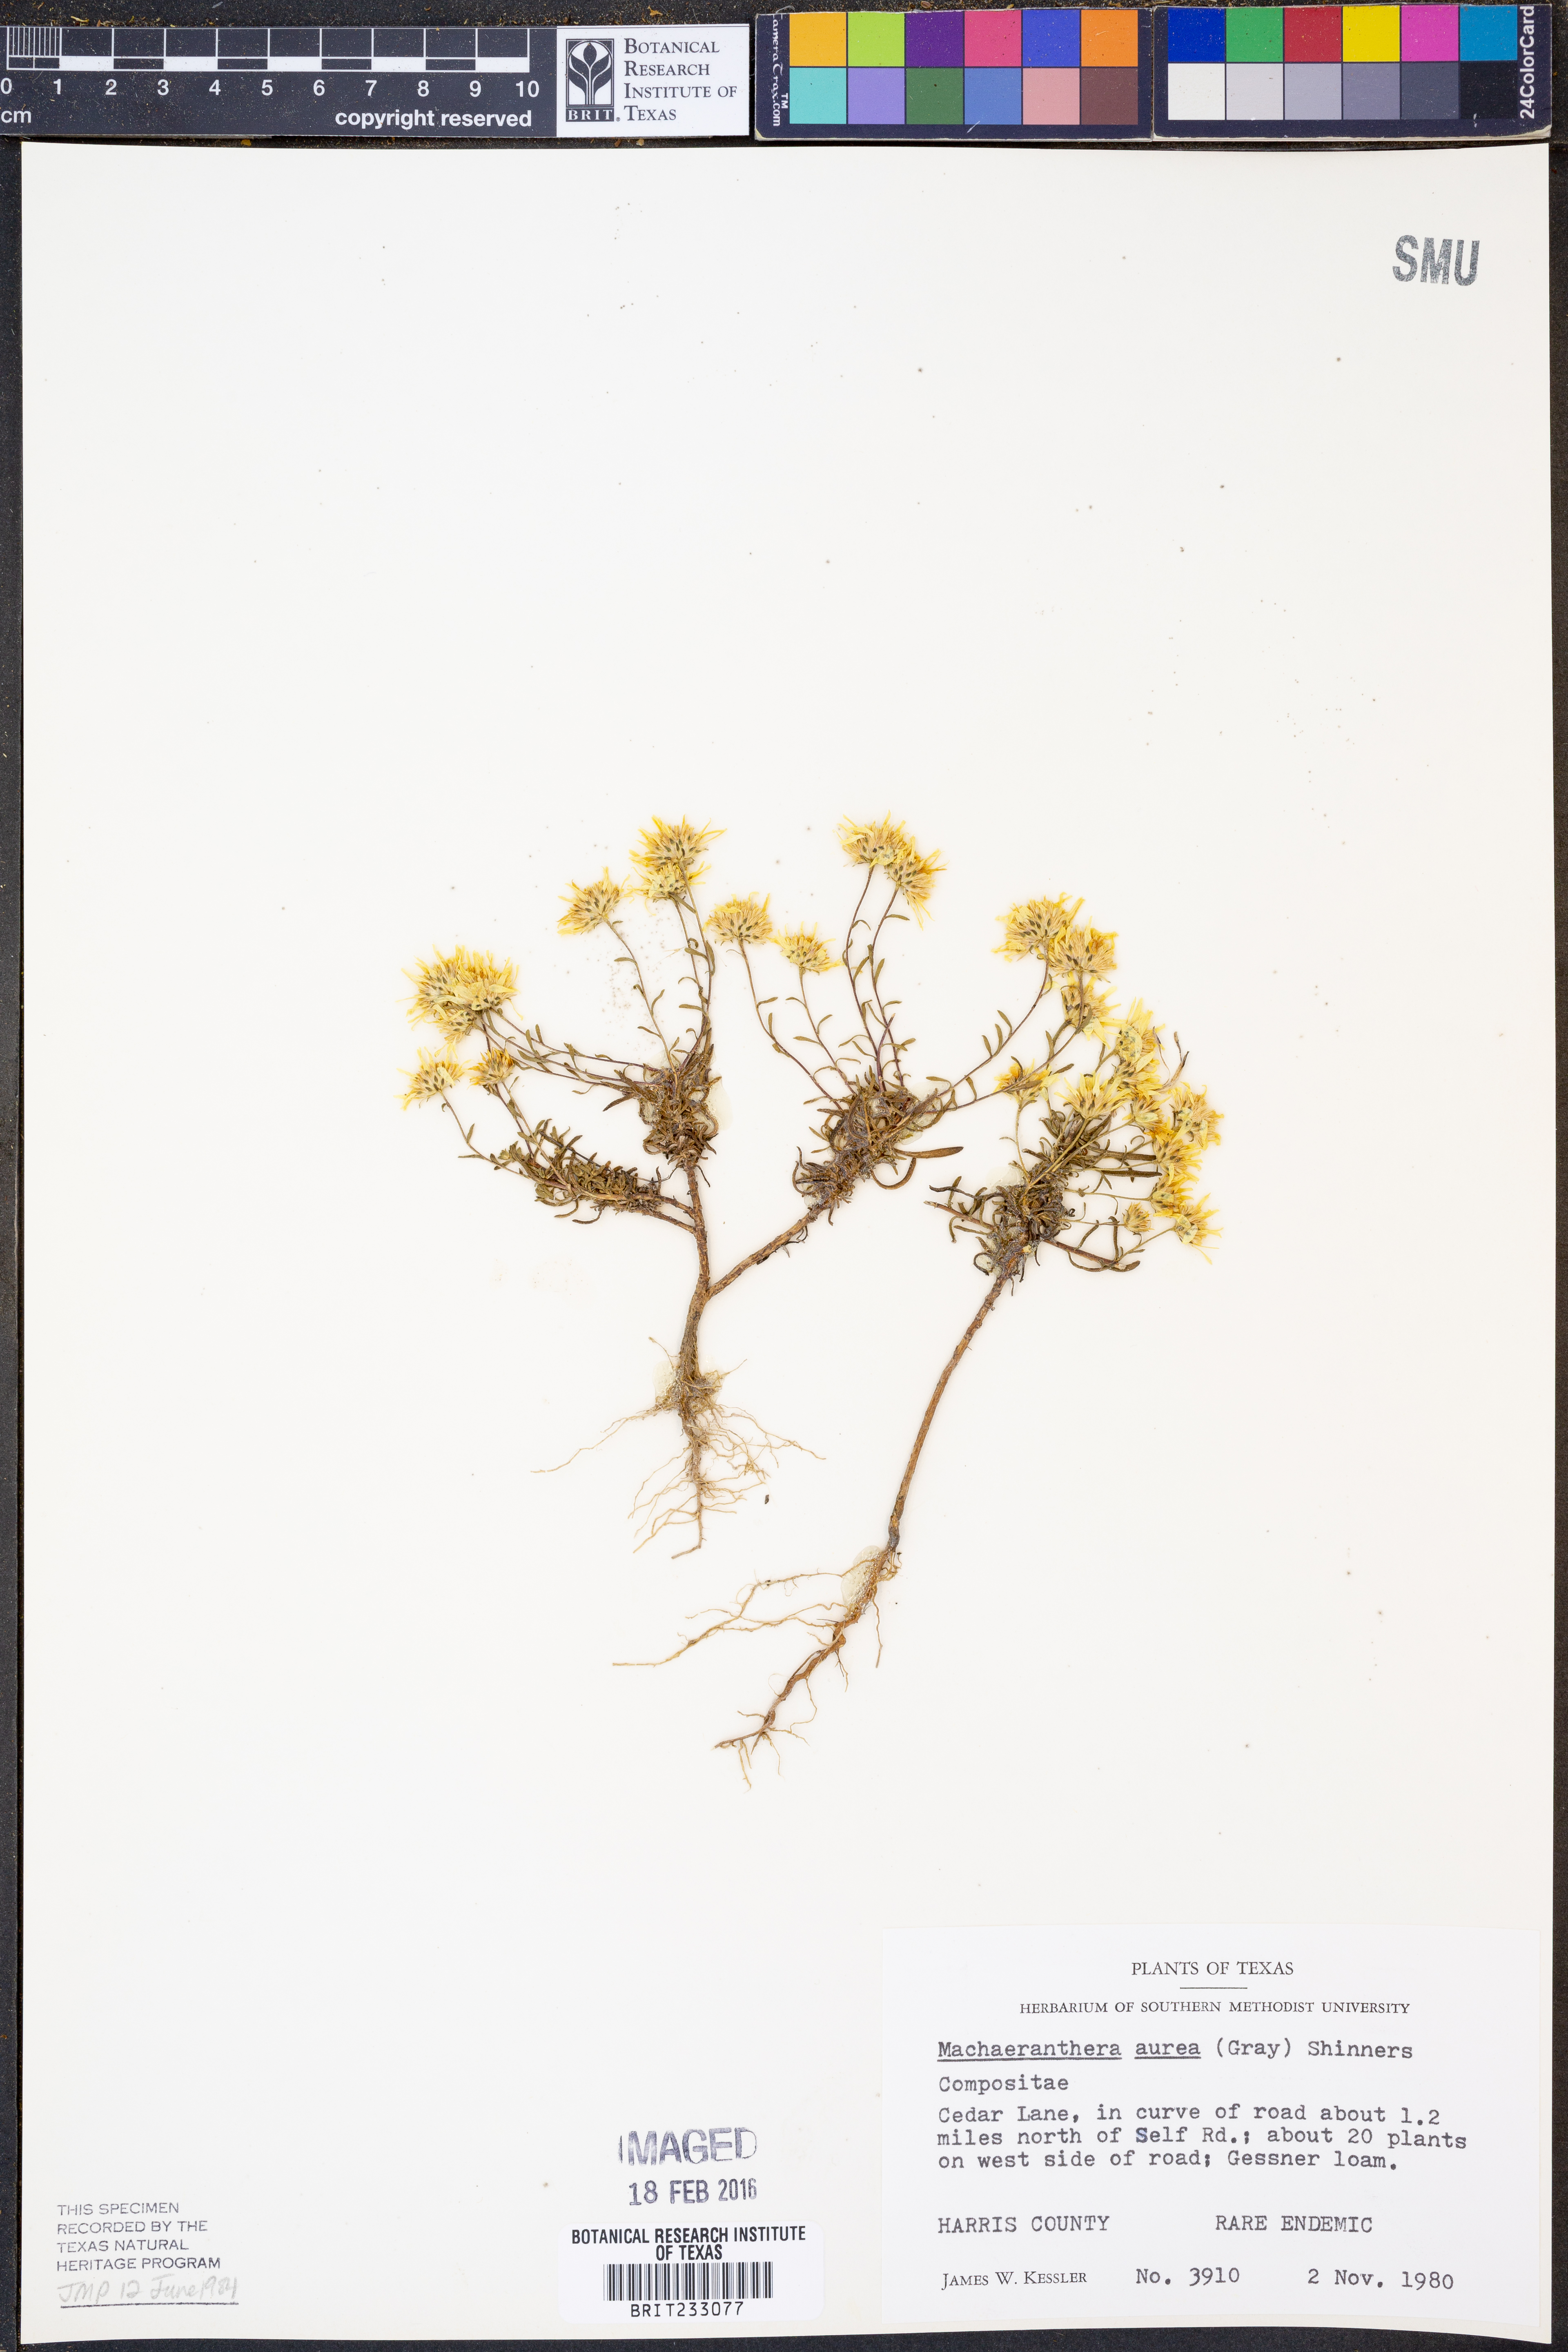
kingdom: Plantae
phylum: Tracheophyta
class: Magnoliopsida
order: Asterales
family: Asteraceae
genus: Rayjacksonia
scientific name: Rayjacksonia aurea
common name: Houston camphor daisy
